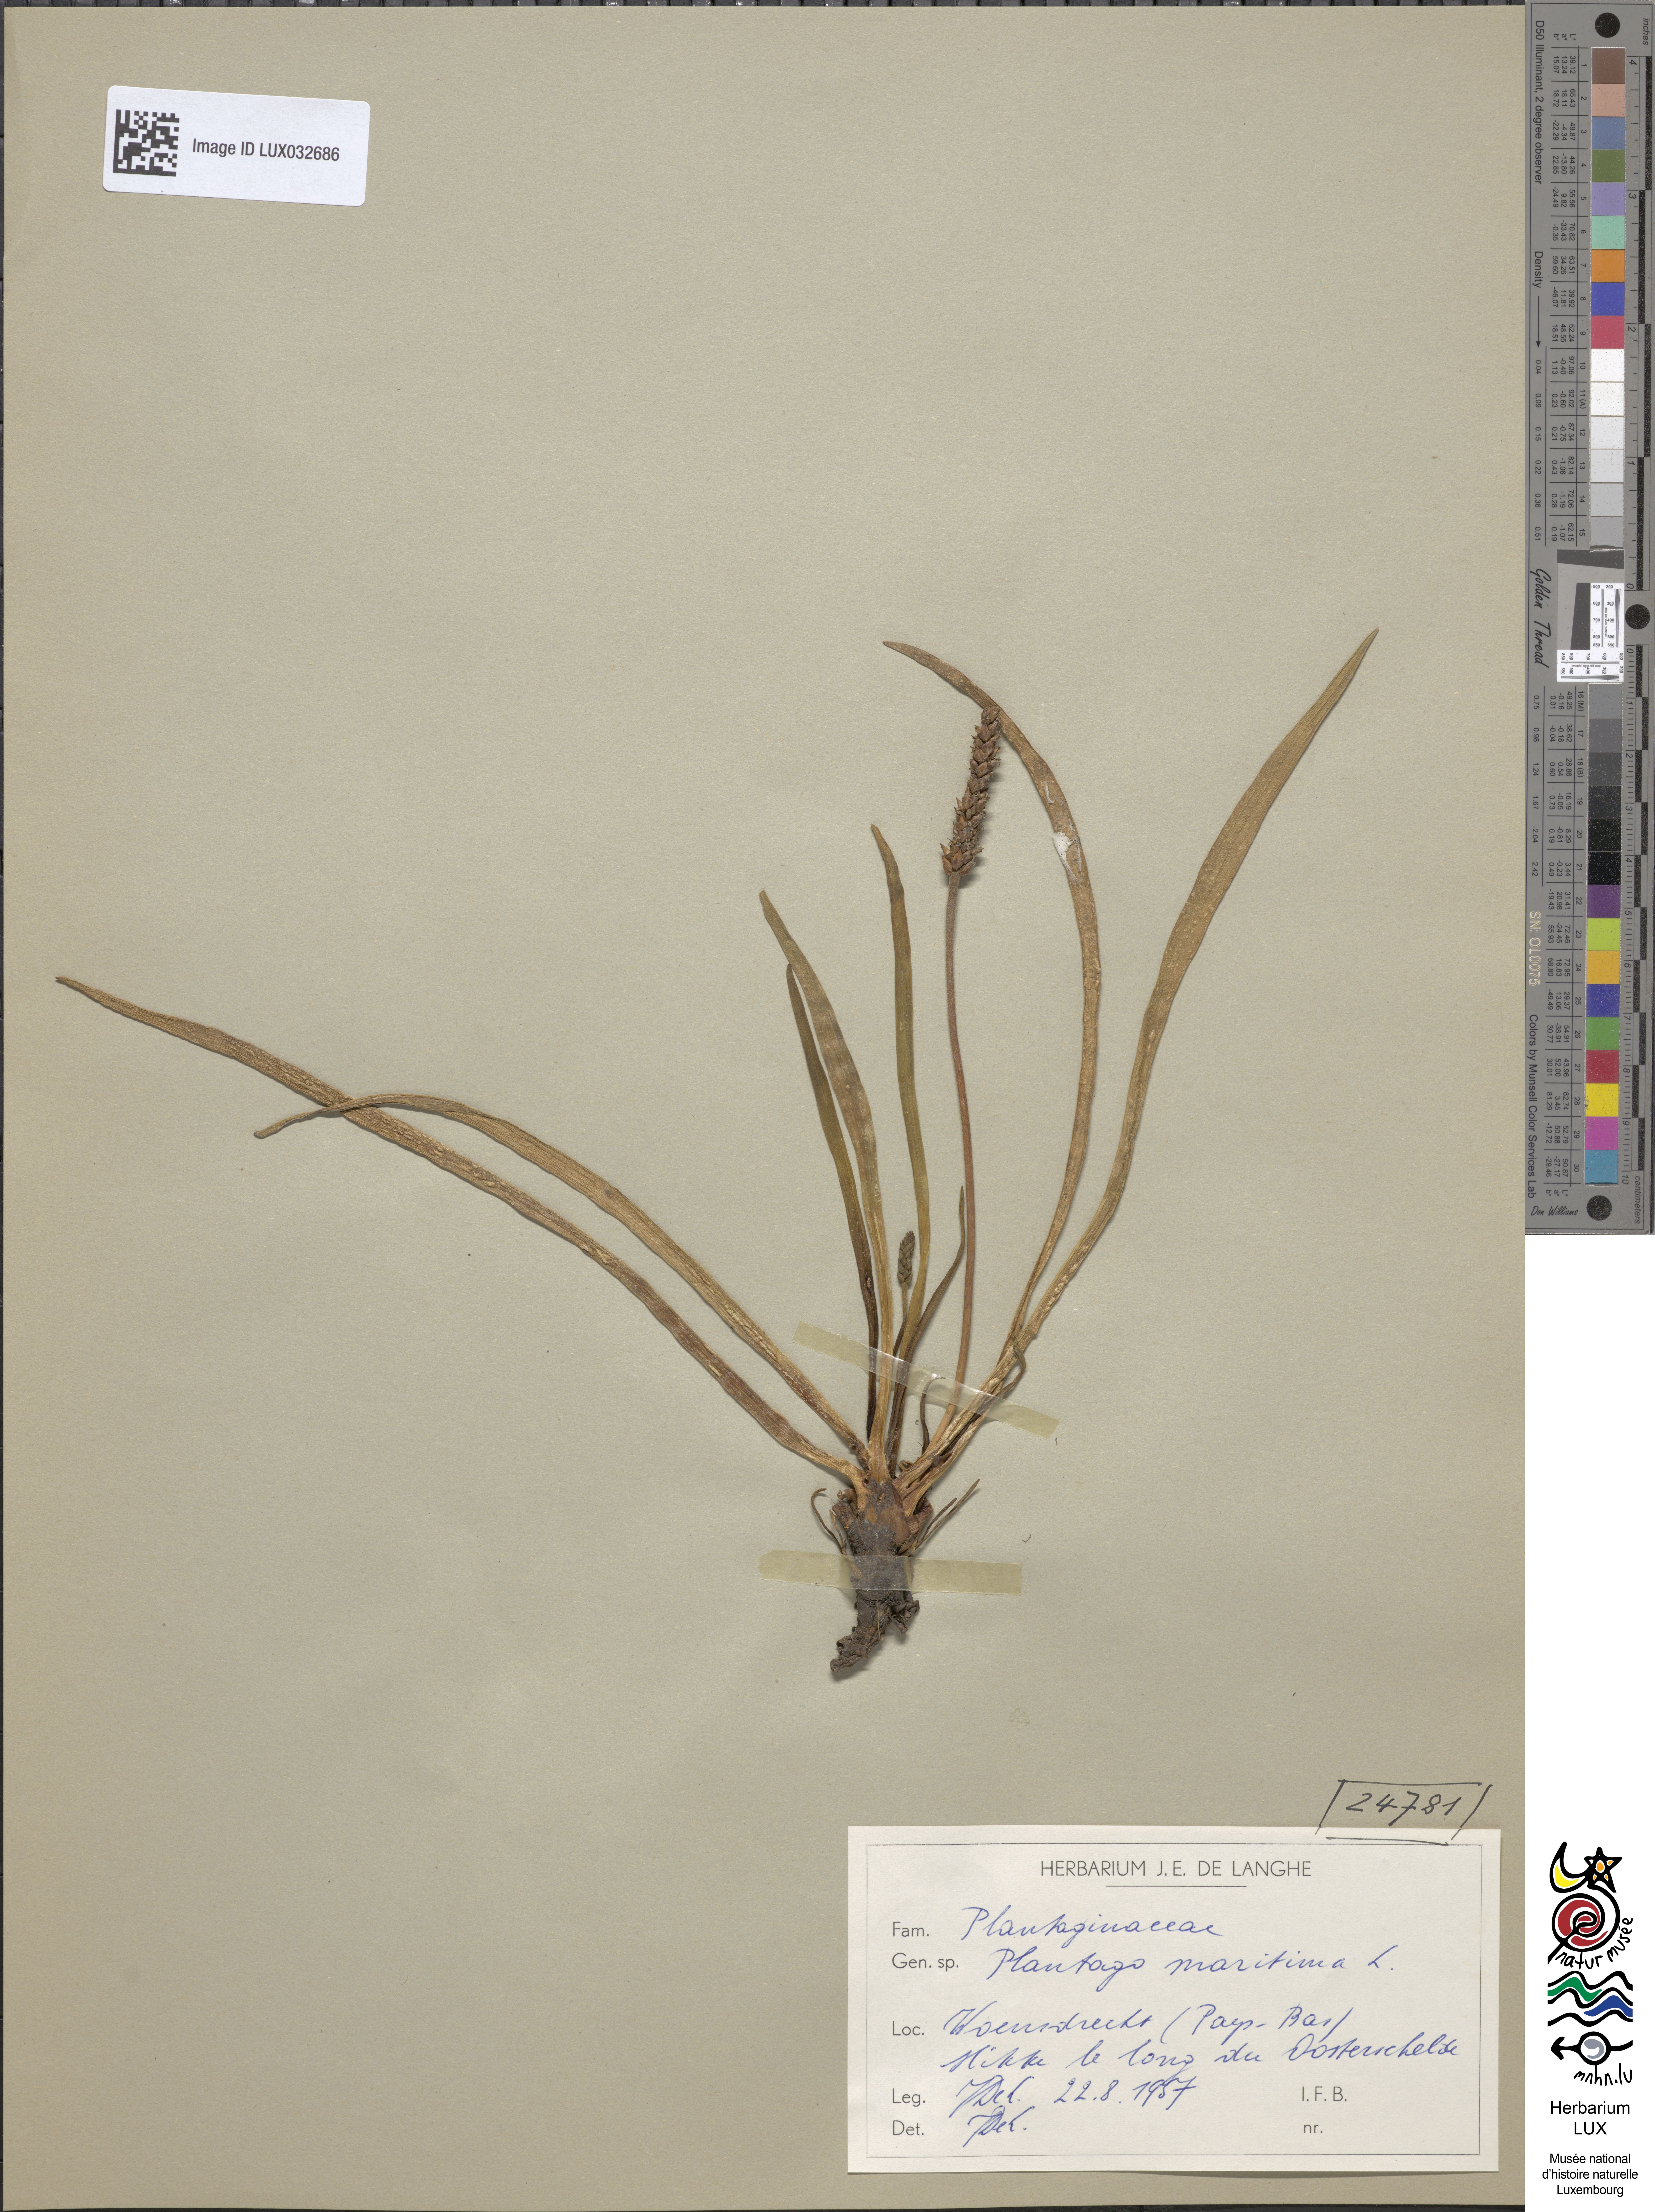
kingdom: Plantae
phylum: Tracheophyta
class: Magnoliopsida
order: Lamiales
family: Plantaginaceae
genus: Plantago
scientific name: Plantago maritima
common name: Sea plantain
